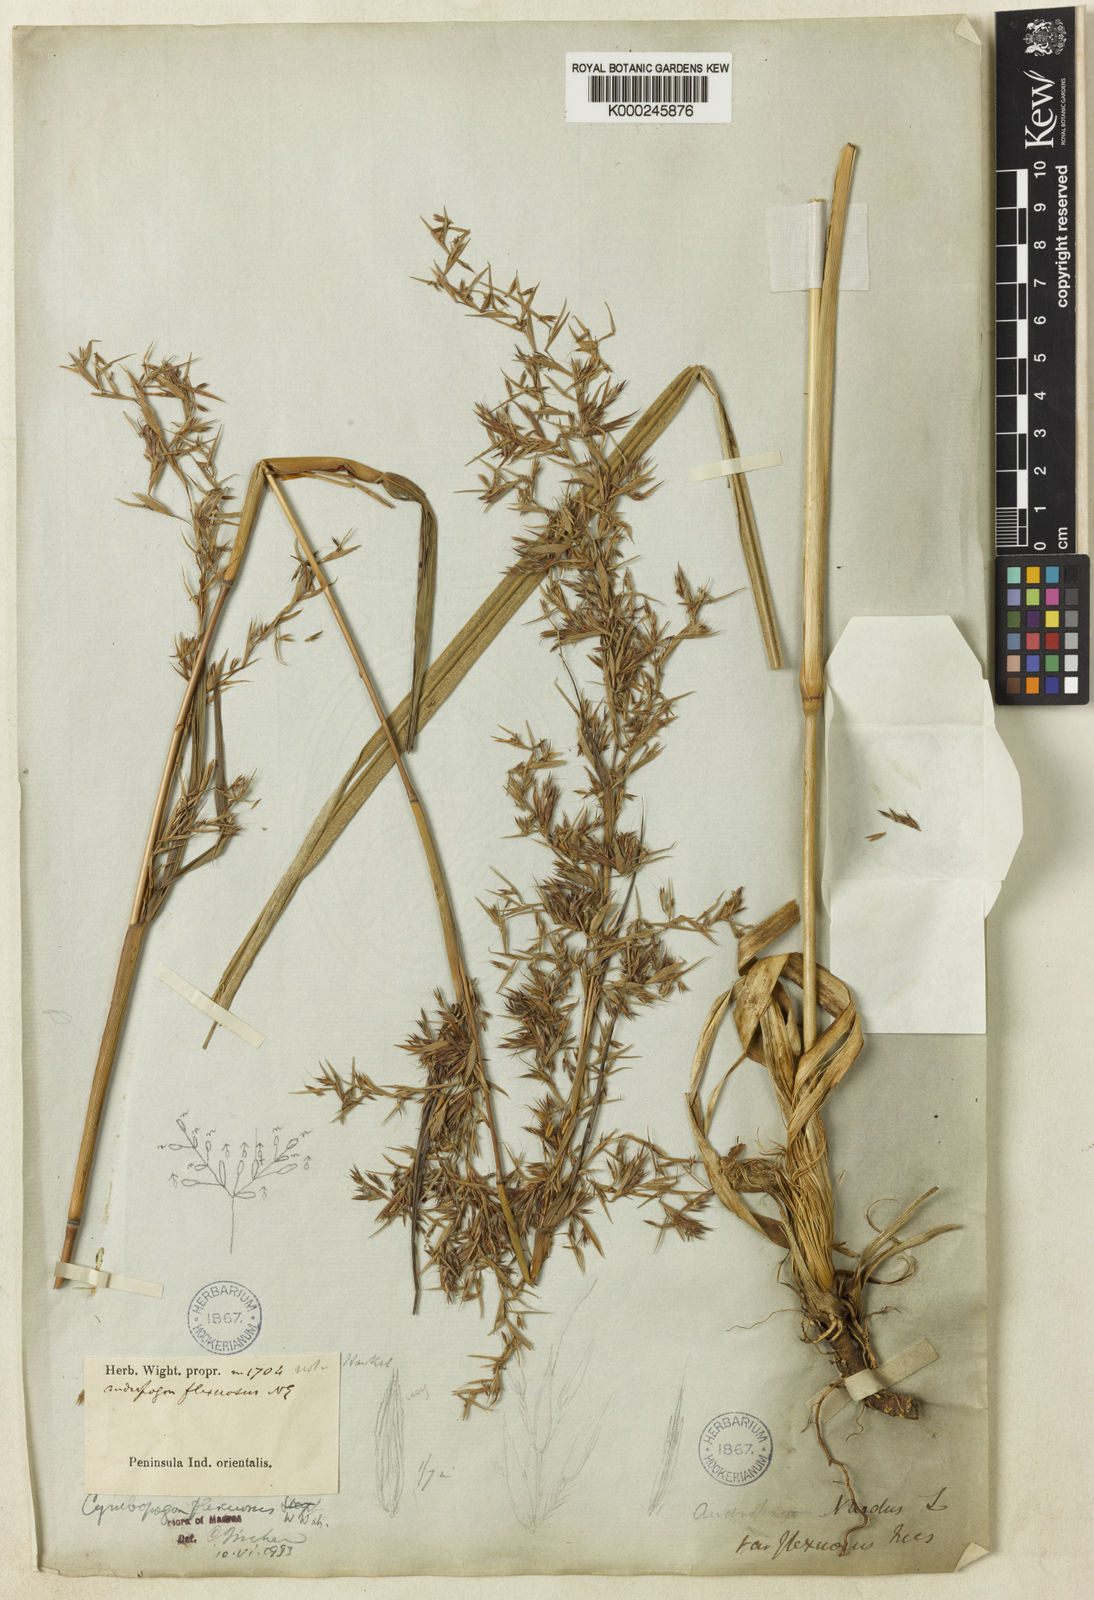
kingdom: Plantae
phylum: Tracheophyta
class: Liliopsida
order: Poales
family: Poaceae
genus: Cymbopogon
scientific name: Cymbopogon flexuosus
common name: East indian lemongrass
